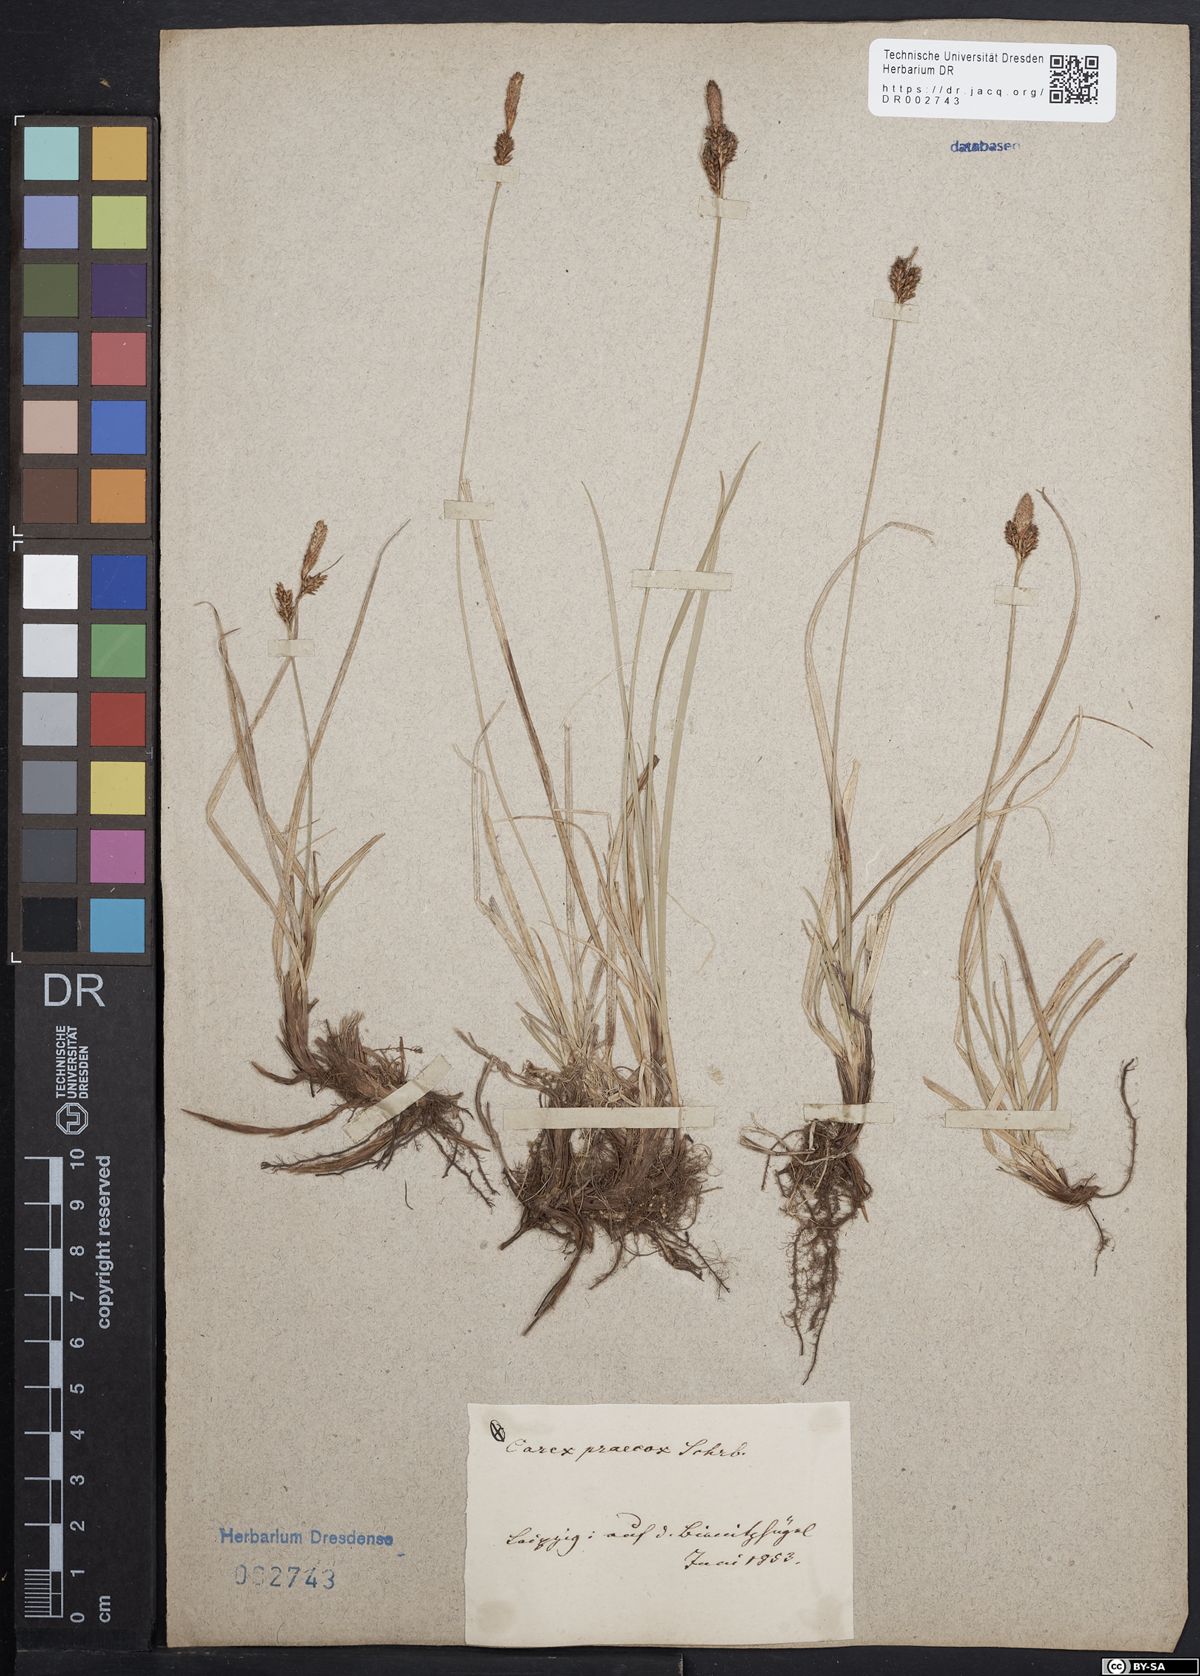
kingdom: Plantae
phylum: Tracheophyta
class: Liliopsida
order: Poales
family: Cyperaceae
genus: Carex
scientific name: Carex caryophyllea
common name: Spring sedge
